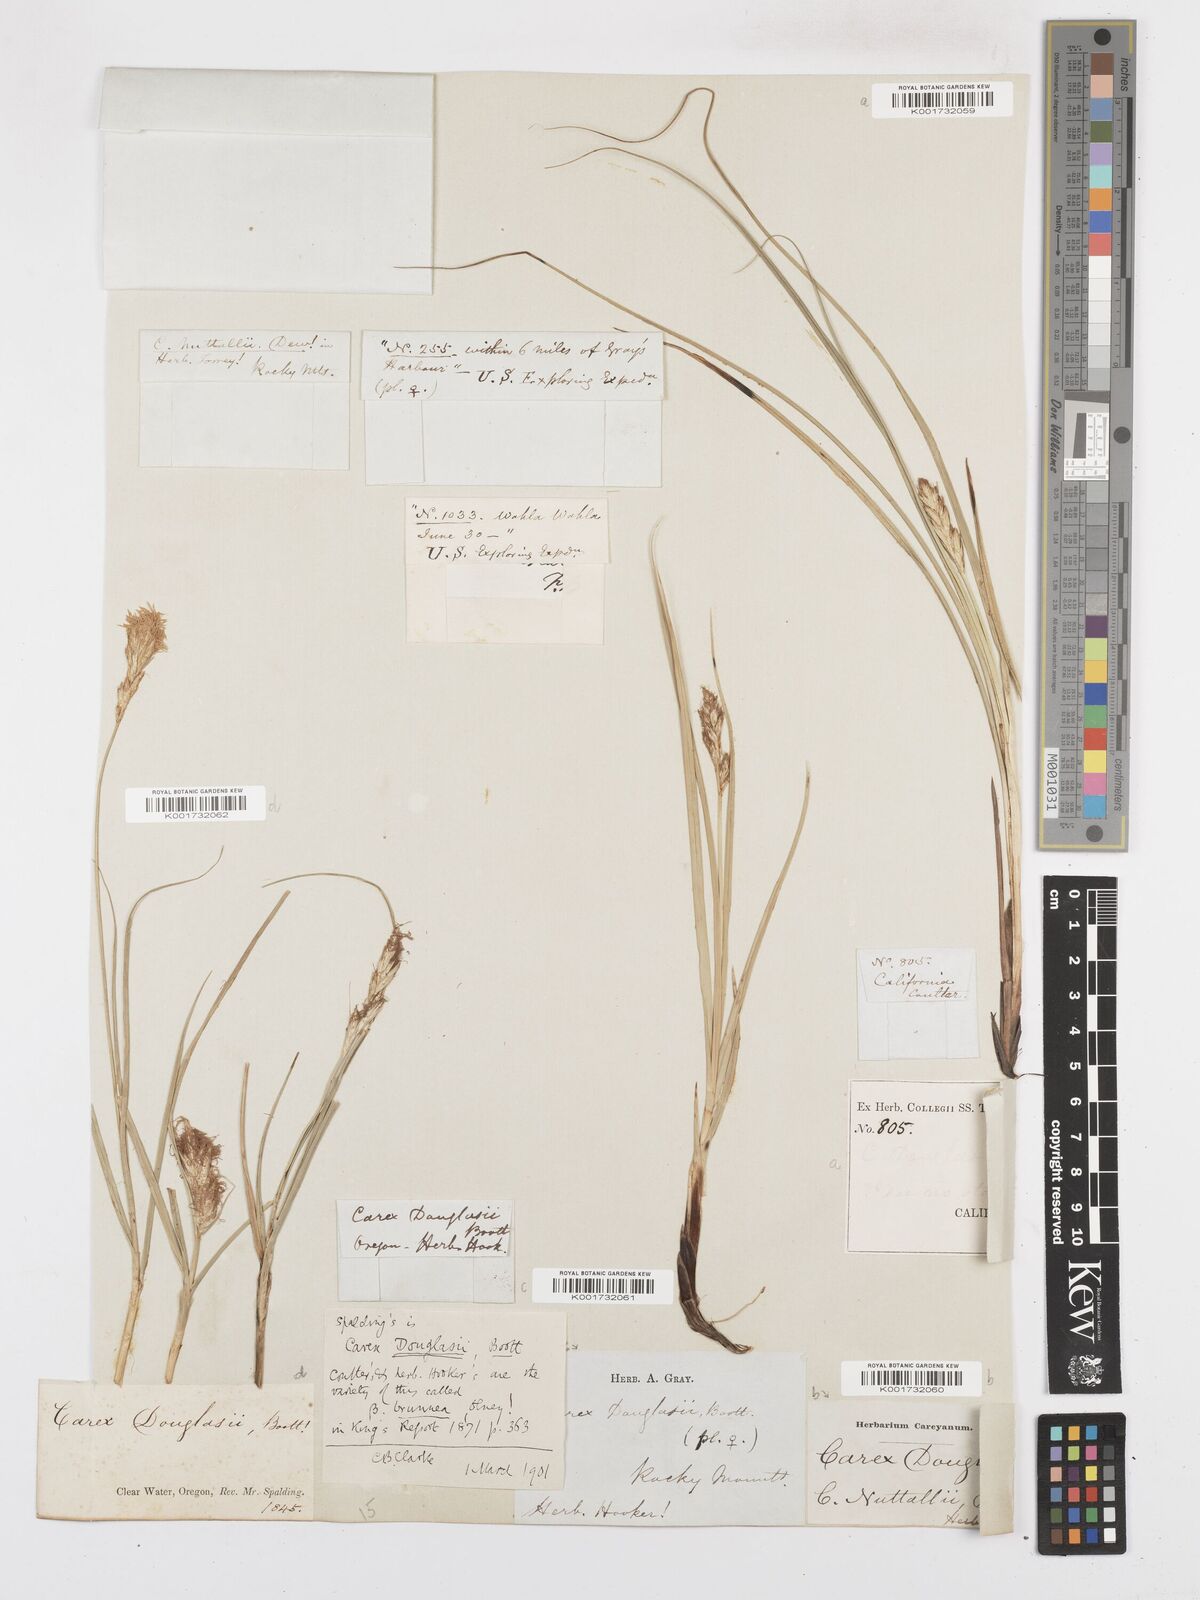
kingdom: Plantae
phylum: Tracheophyta
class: Liliopsida
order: Poales
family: Cyperaceae
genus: Carex
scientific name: Carex douglasii
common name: Douglas' sedge
